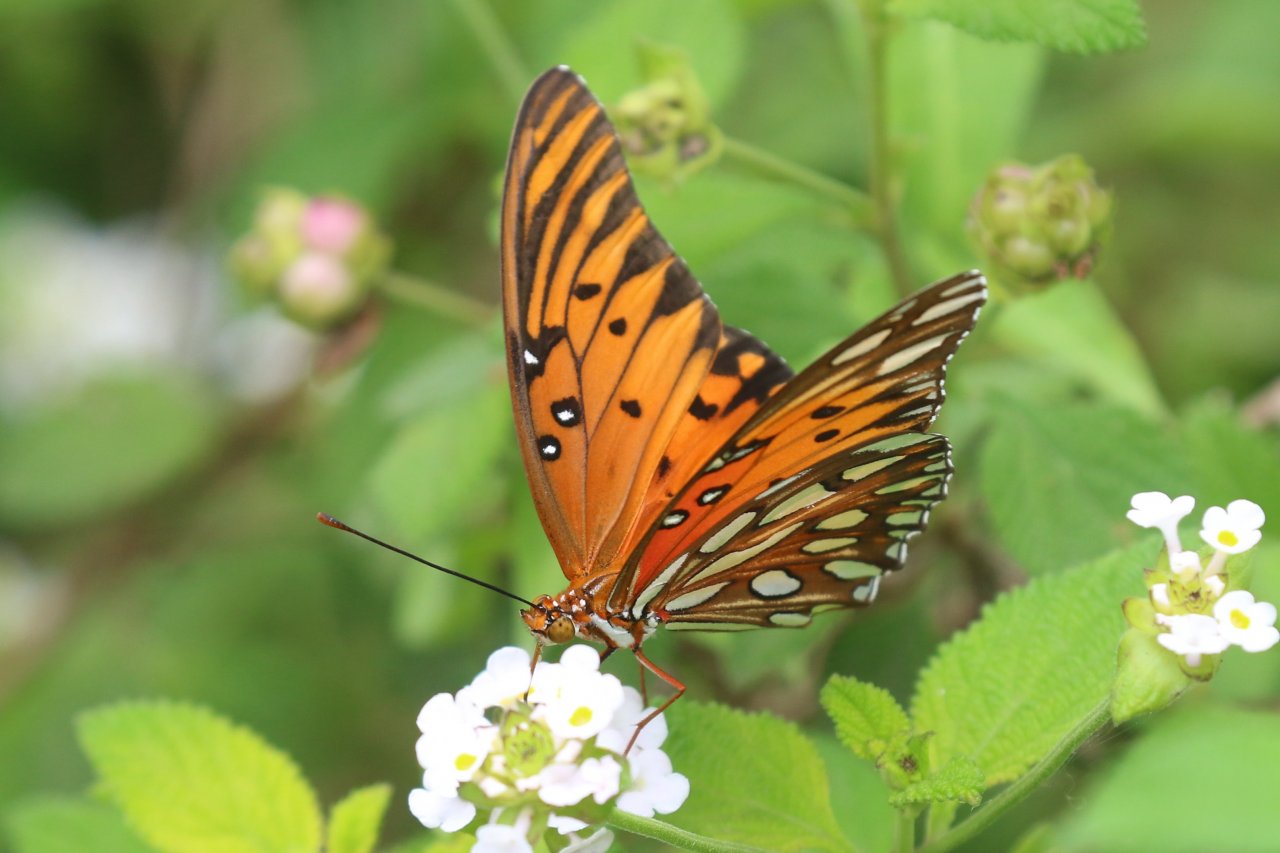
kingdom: Animalia
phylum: Arthropoda
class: Insecta
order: Lepidoptera
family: Nymphalidae
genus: Dione
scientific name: Dione vanillae
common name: Gulf Fritillary
